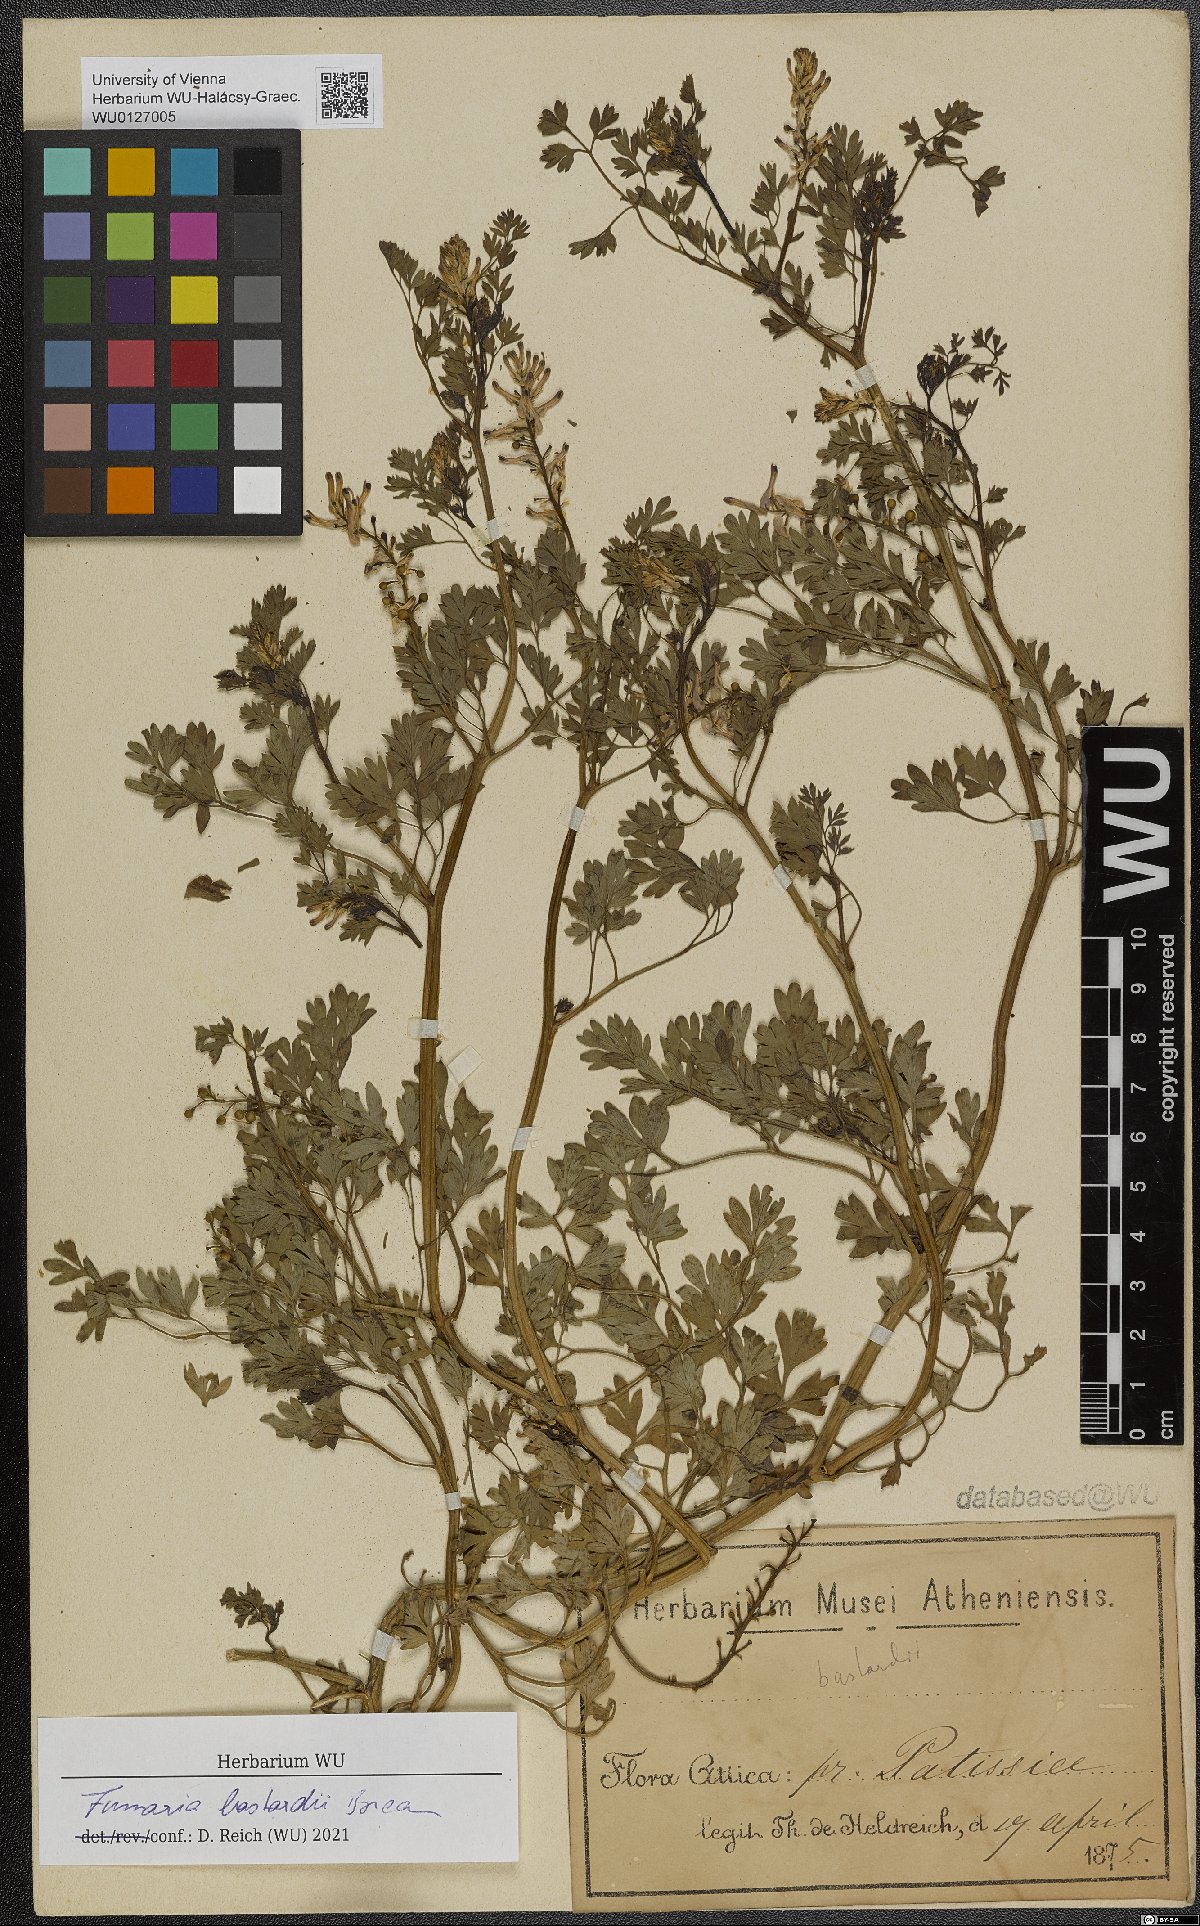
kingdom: Plantae
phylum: Tracheophyta
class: Magnoliopsida
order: Ranunculales
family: Papaveraceae
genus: Fumaria
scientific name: Fumaria bastardii
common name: Tall ramping-fumitory
